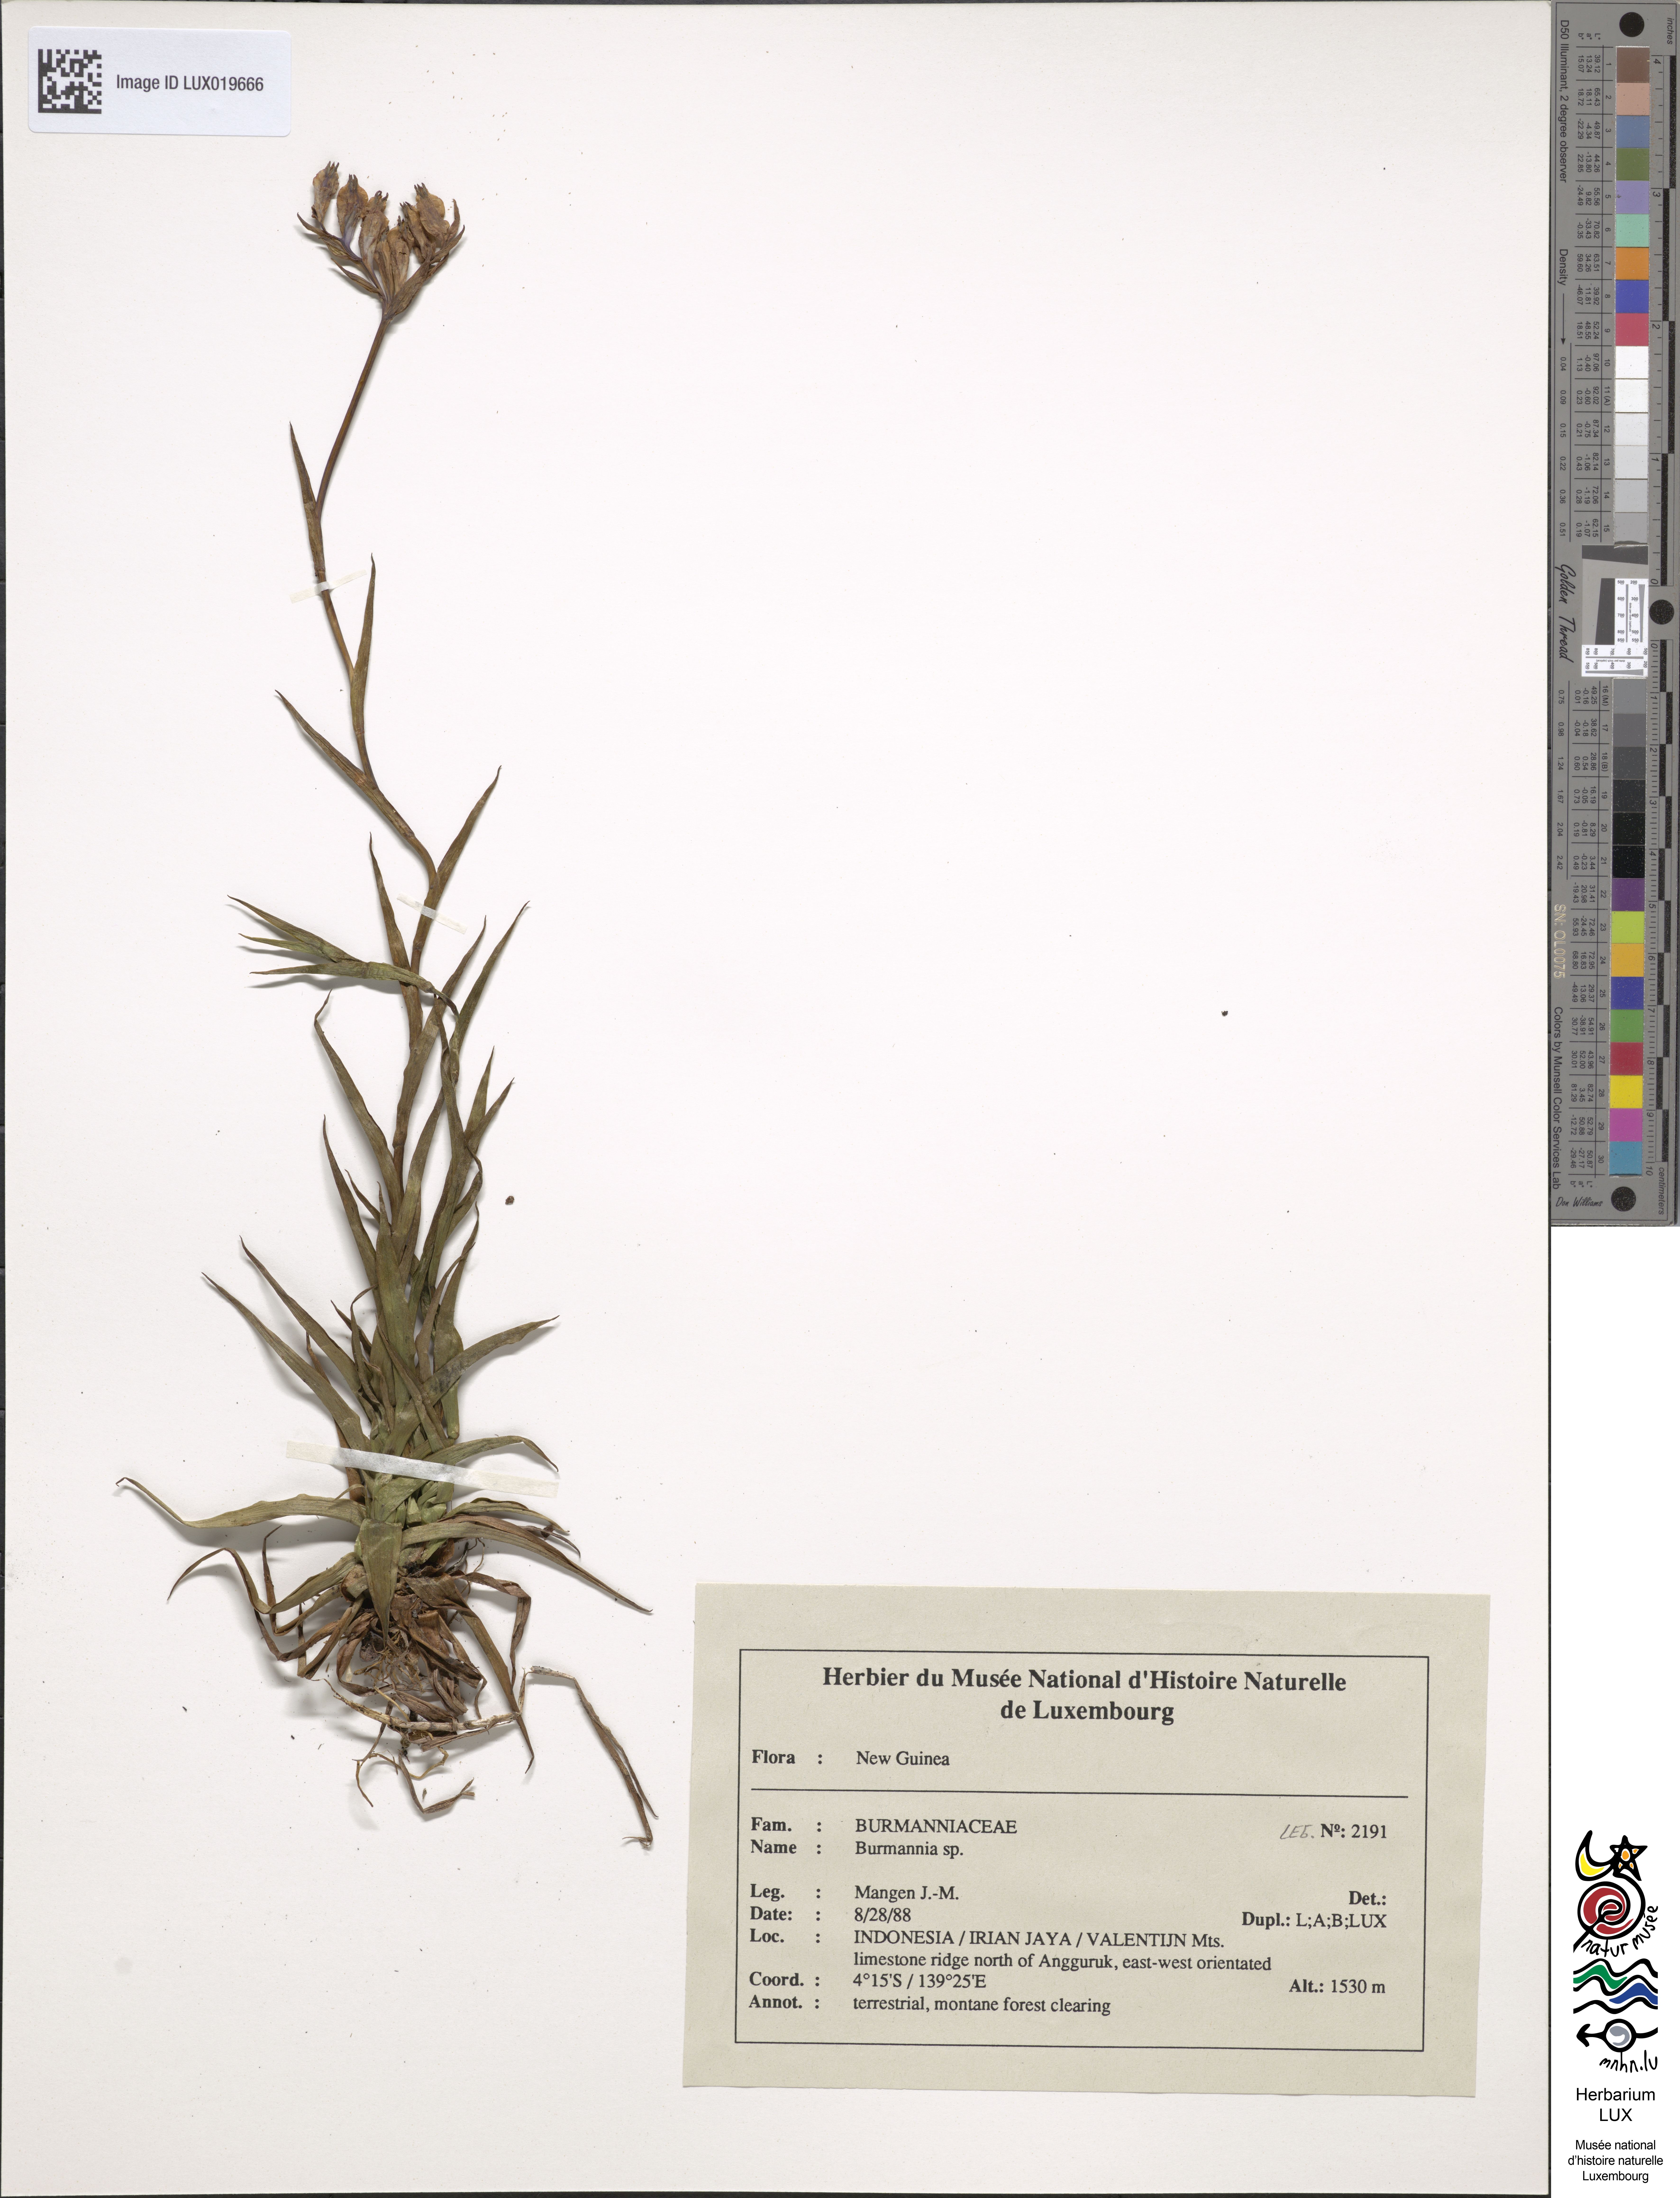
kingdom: Plantae
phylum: Tracheophyta
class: Liliopsida
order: Dioscoreales
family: Burmanniaceae
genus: Burmannia
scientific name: Burmannia
